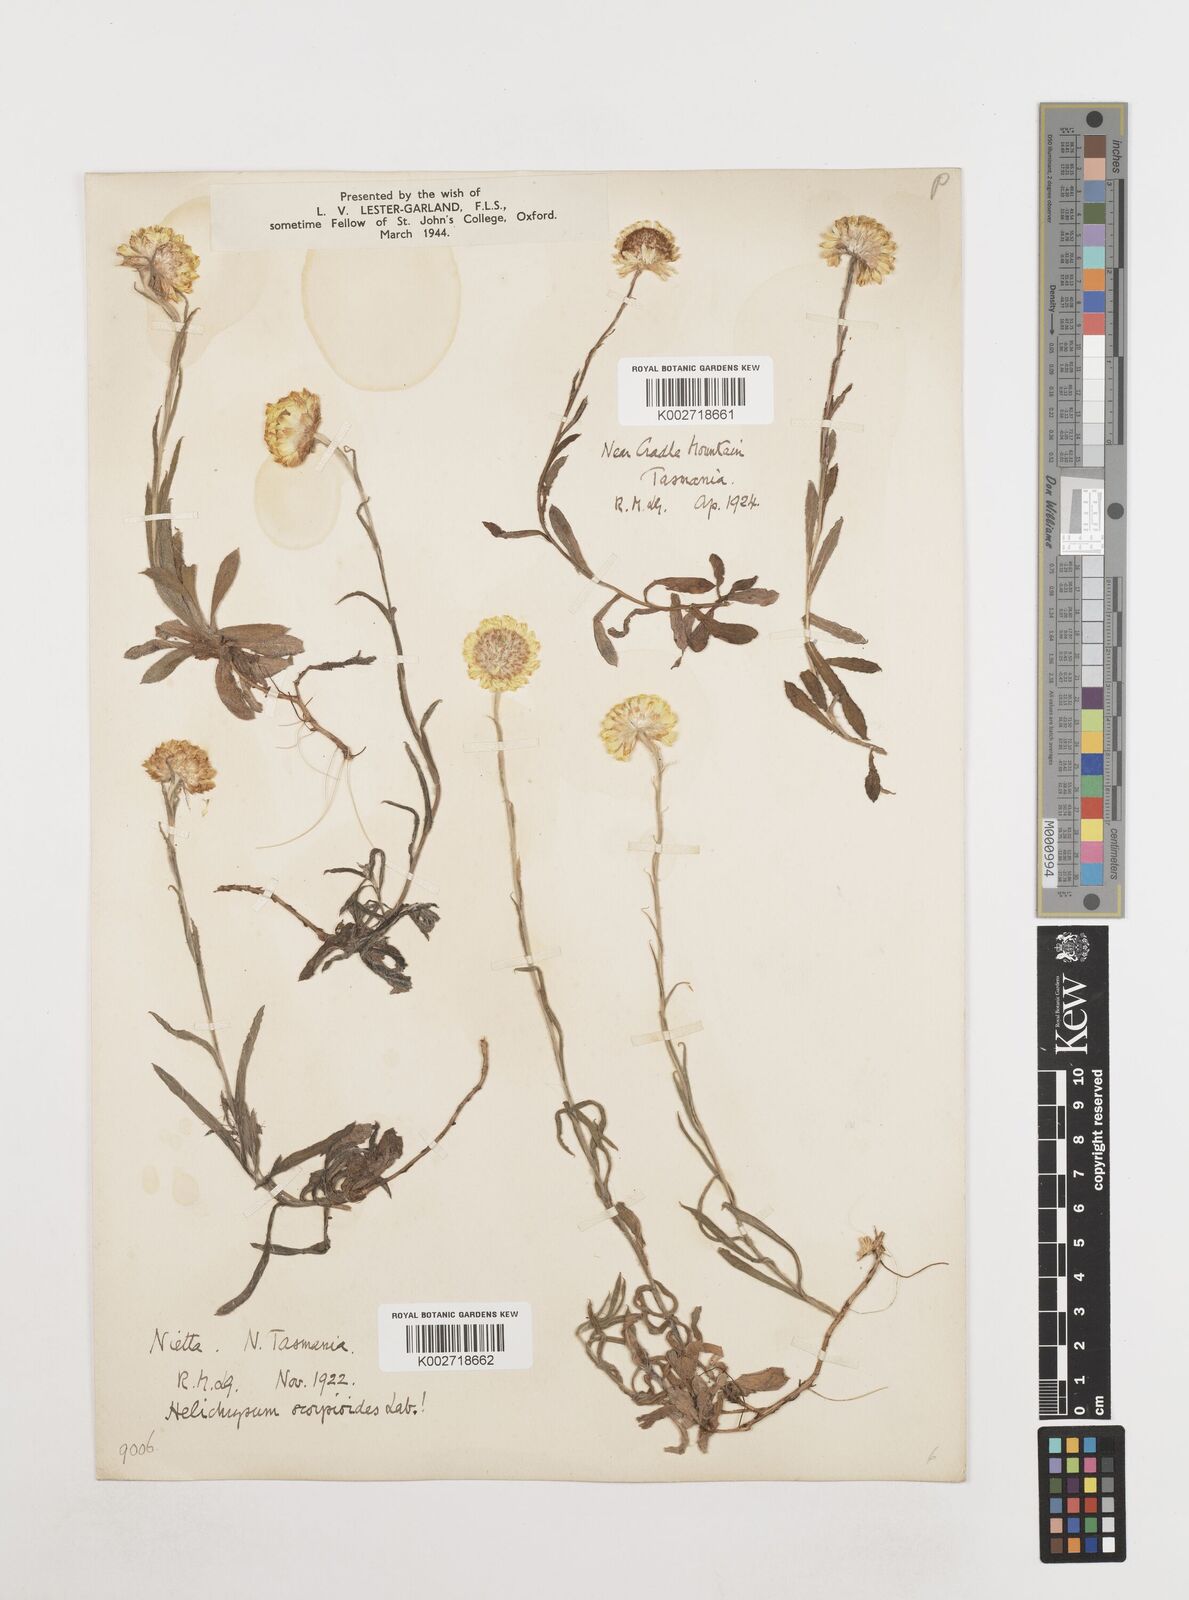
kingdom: Plantae
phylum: Tracheophyta
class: Magnoliopsida
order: Asterales
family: Asteraceae
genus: Coronidium
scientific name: Coronidium scorpioides
